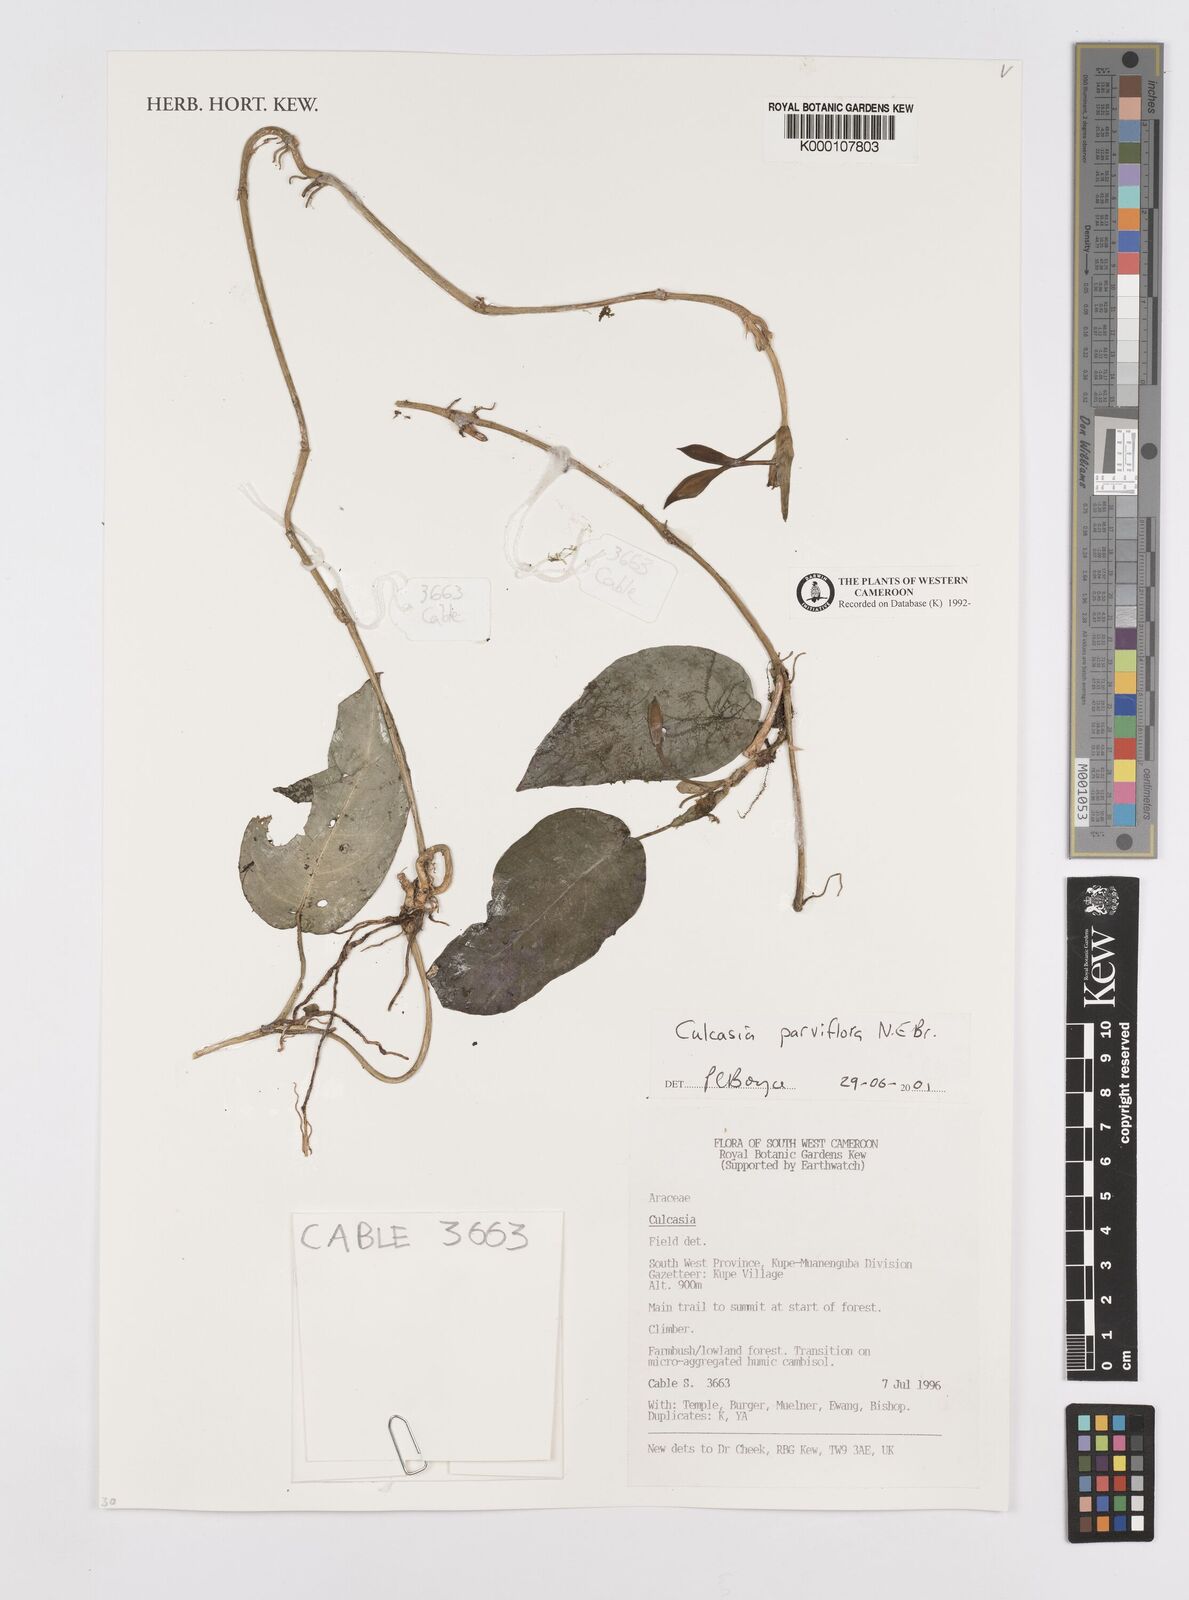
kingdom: Plantae
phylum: Tracheophyta
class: Liliopsida
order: Alismatales
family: Araceae
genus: Culcasia
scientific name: Culcasia parviflora
